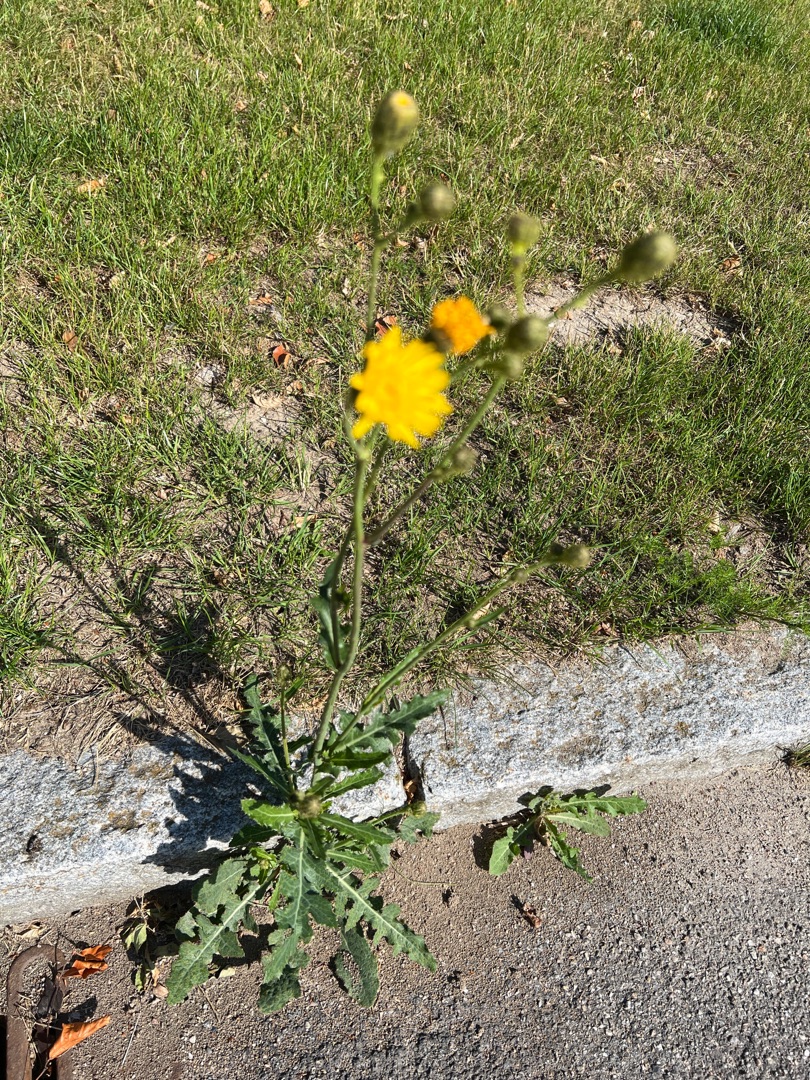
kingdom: Plantae
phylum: Tracheophyta
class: Magnoliopsida
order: Asterales
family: Asteraceae
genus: Sonchus
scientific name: Sonchus arvensis
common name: Ager-svinemælk
